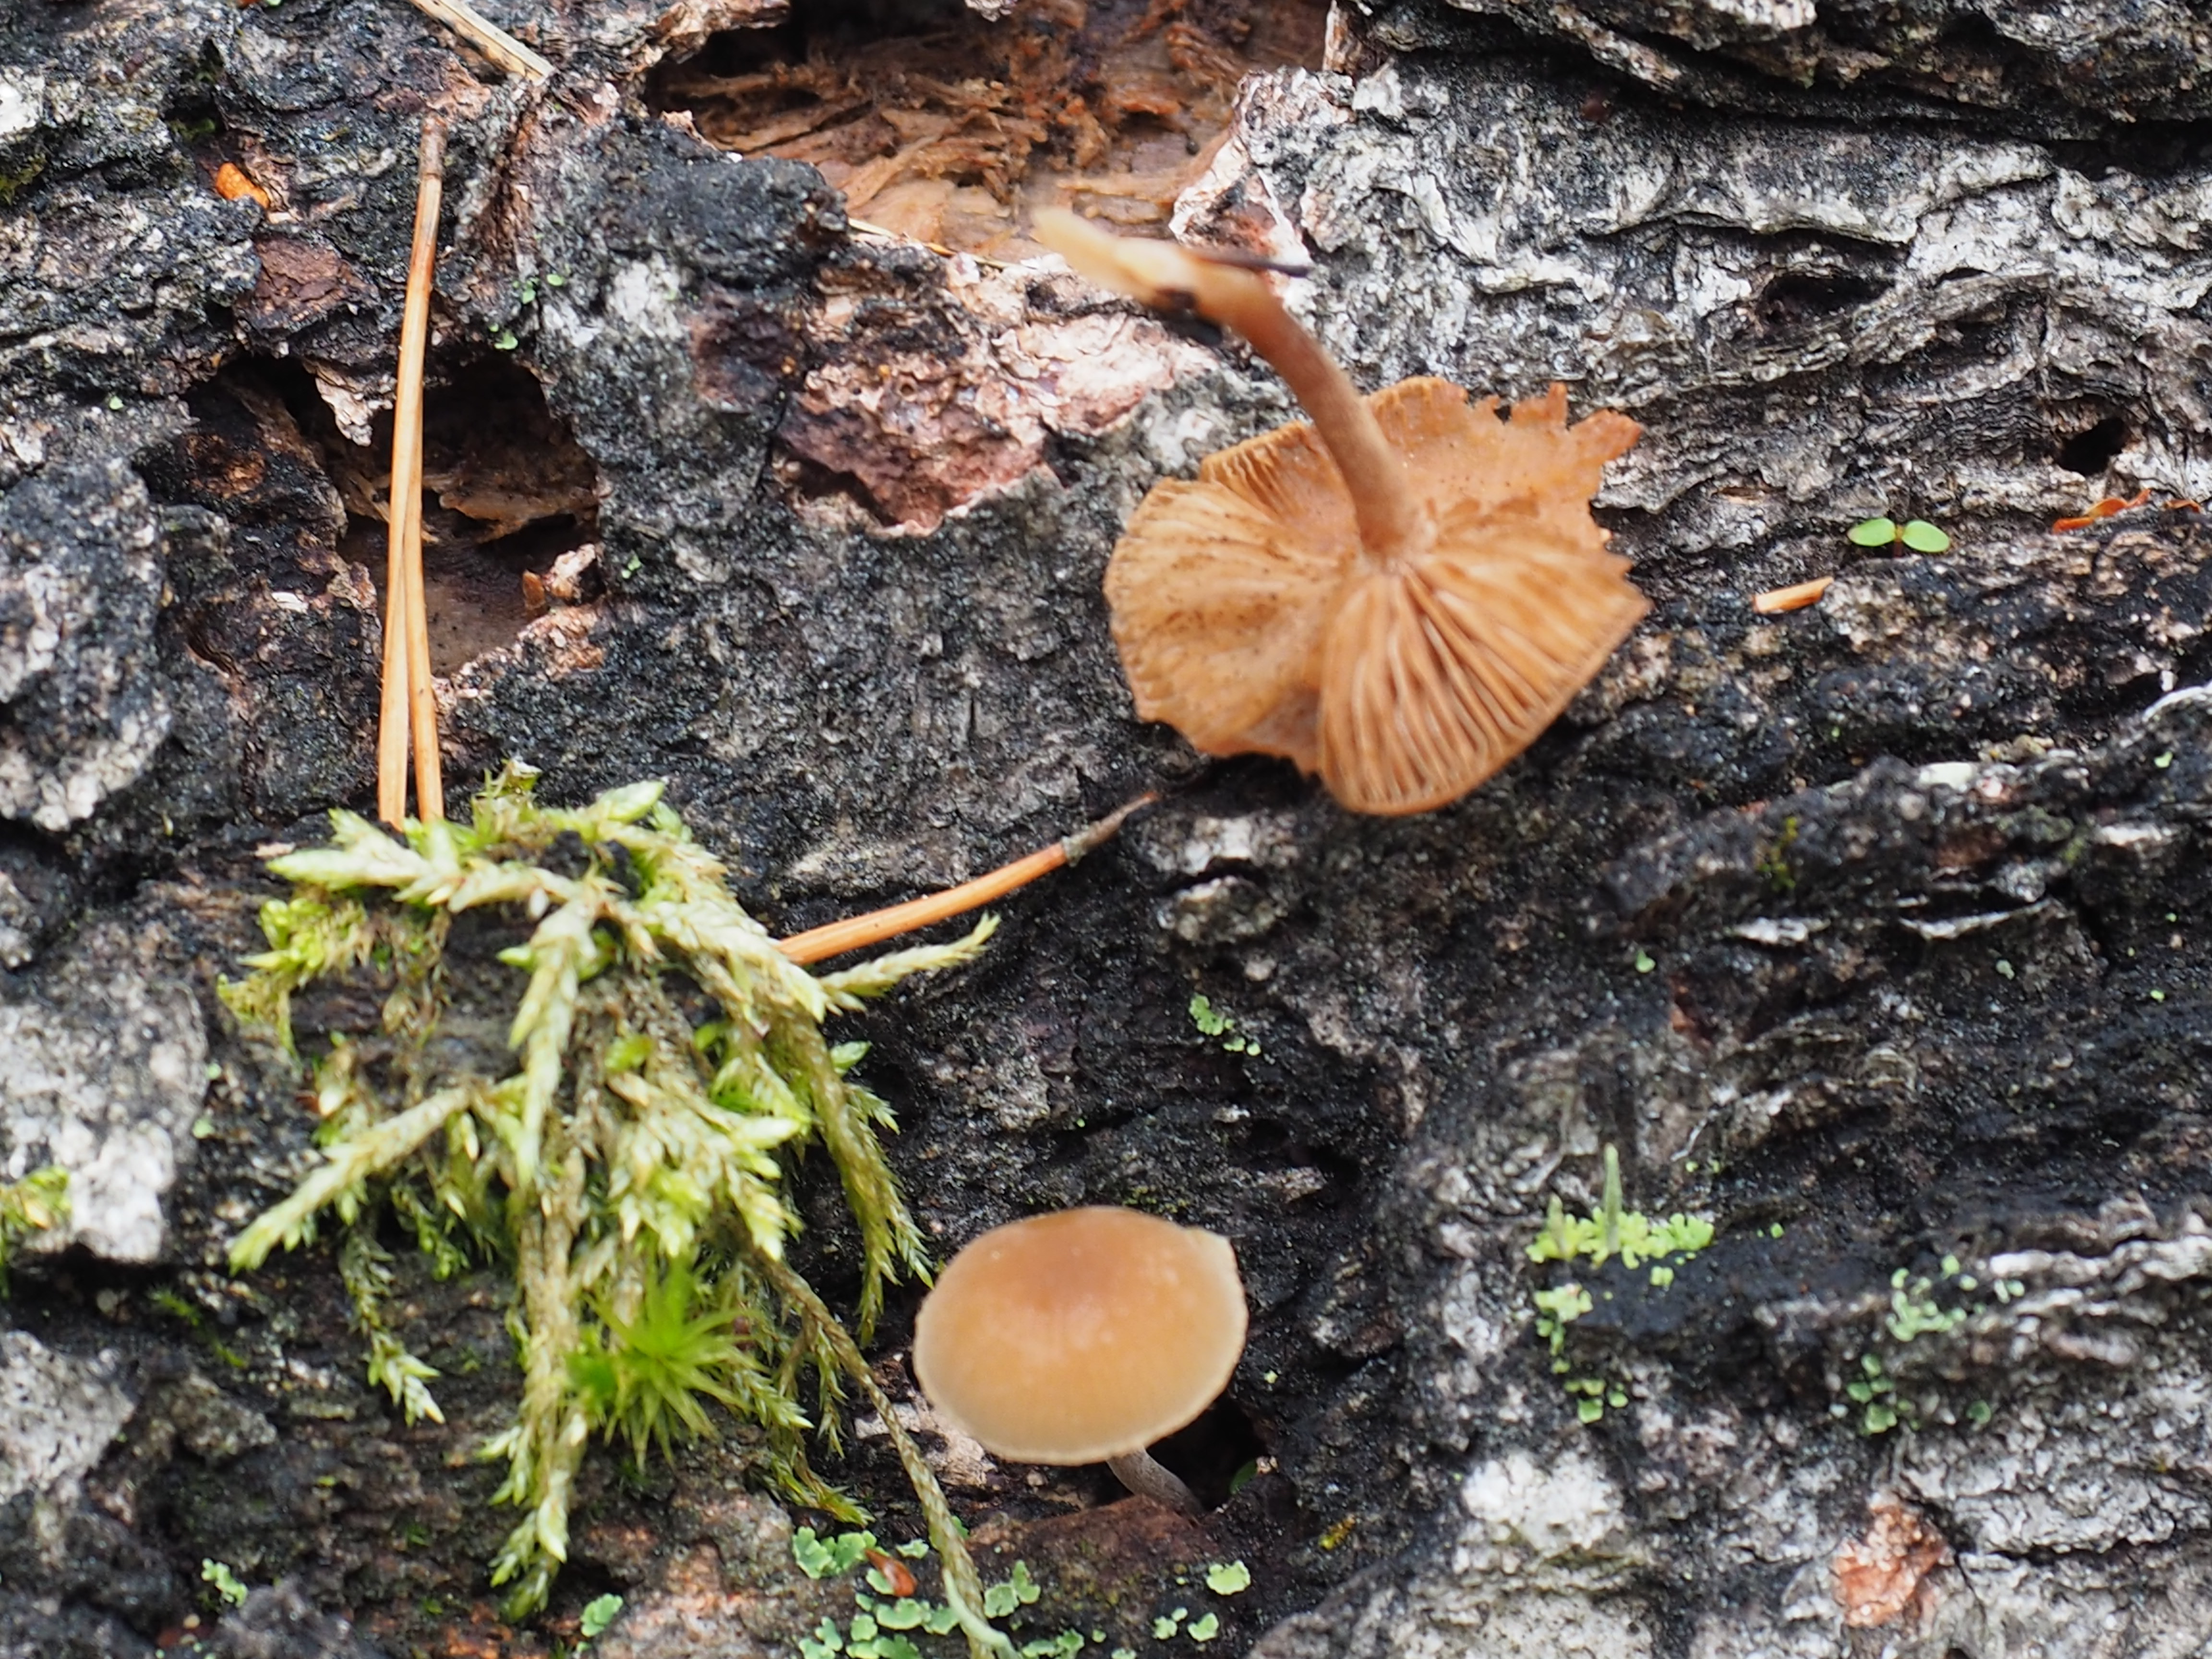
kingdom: Fungi
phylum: Basidiomycota
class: Agaricomycetes
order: Agaricales
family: Crepidotaceae
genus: Simocybe
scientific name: Simocybe centunculus
